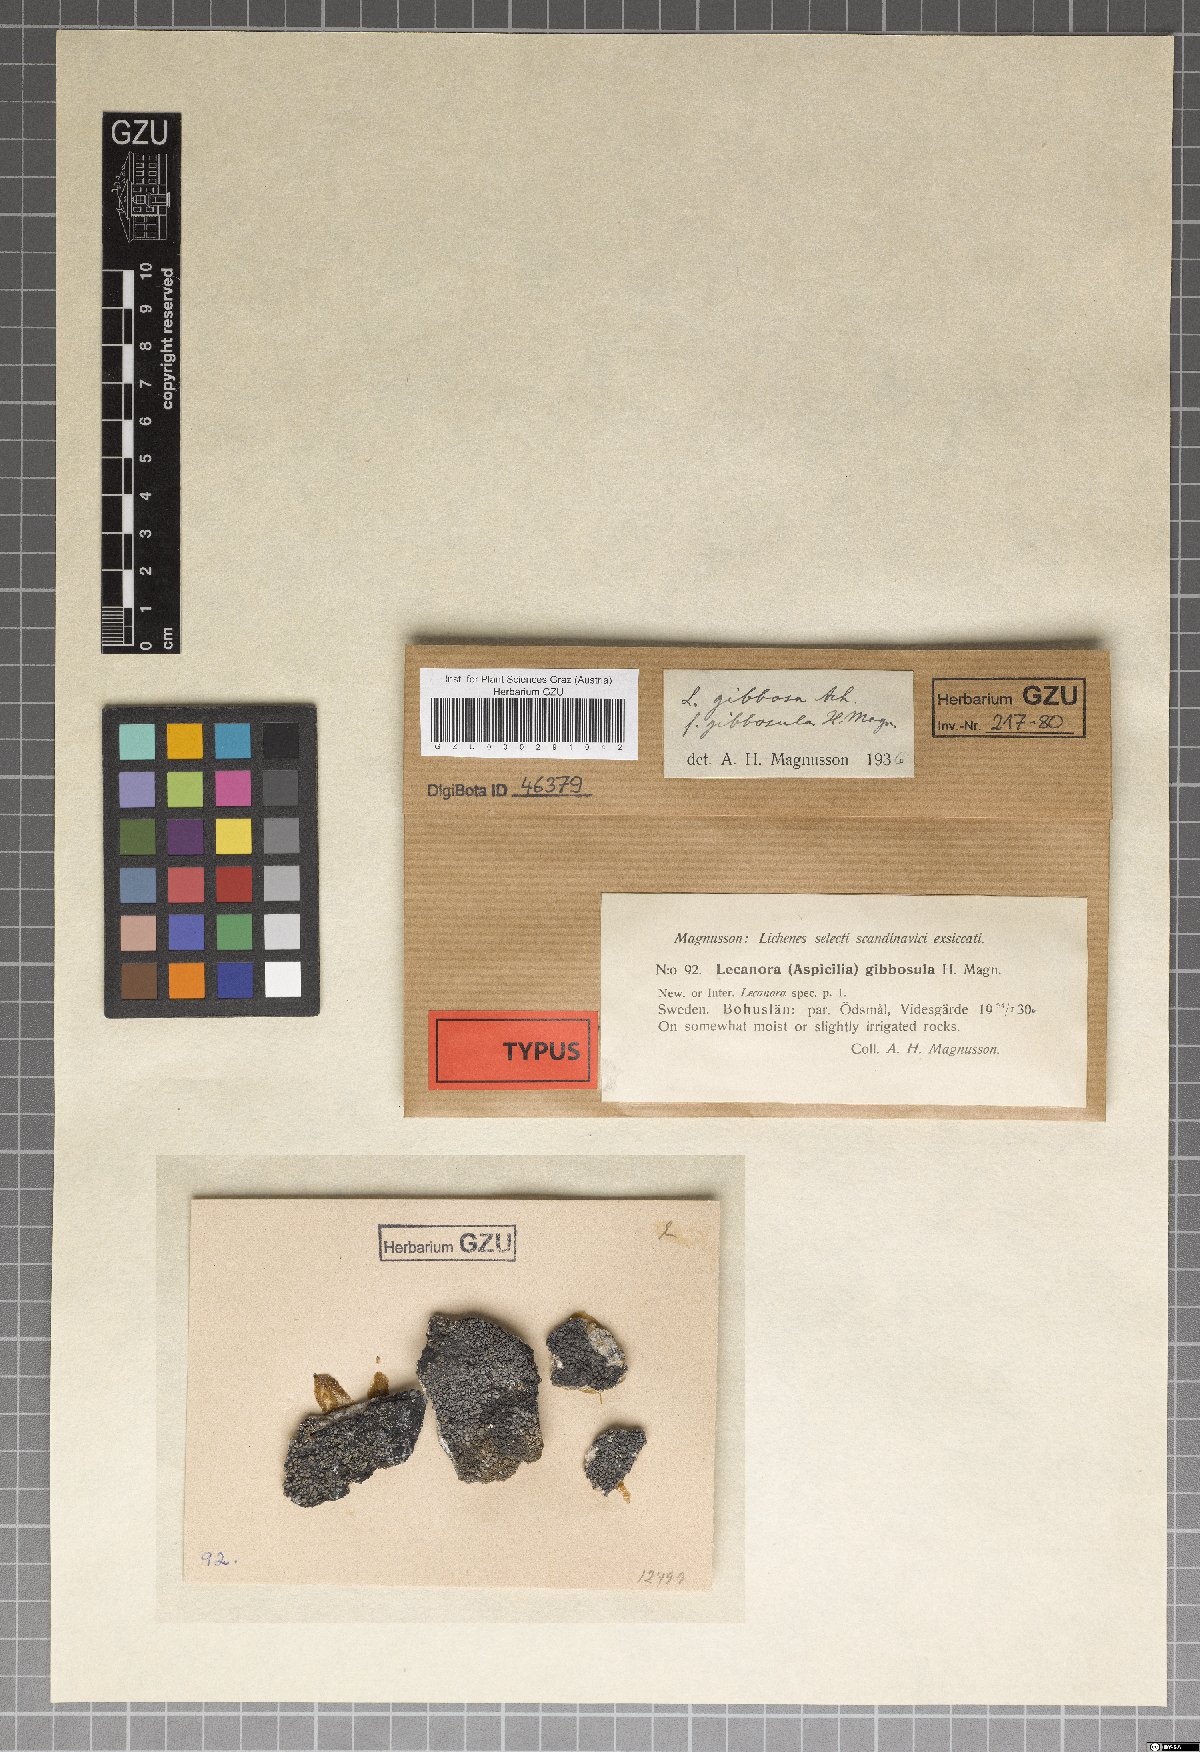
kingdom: Fungi
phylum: Ascomycota
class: Lecanoromycetes
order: Pertusariales
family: Megasporaceae
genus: Circinaria
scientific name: Circinaria gibbosa
